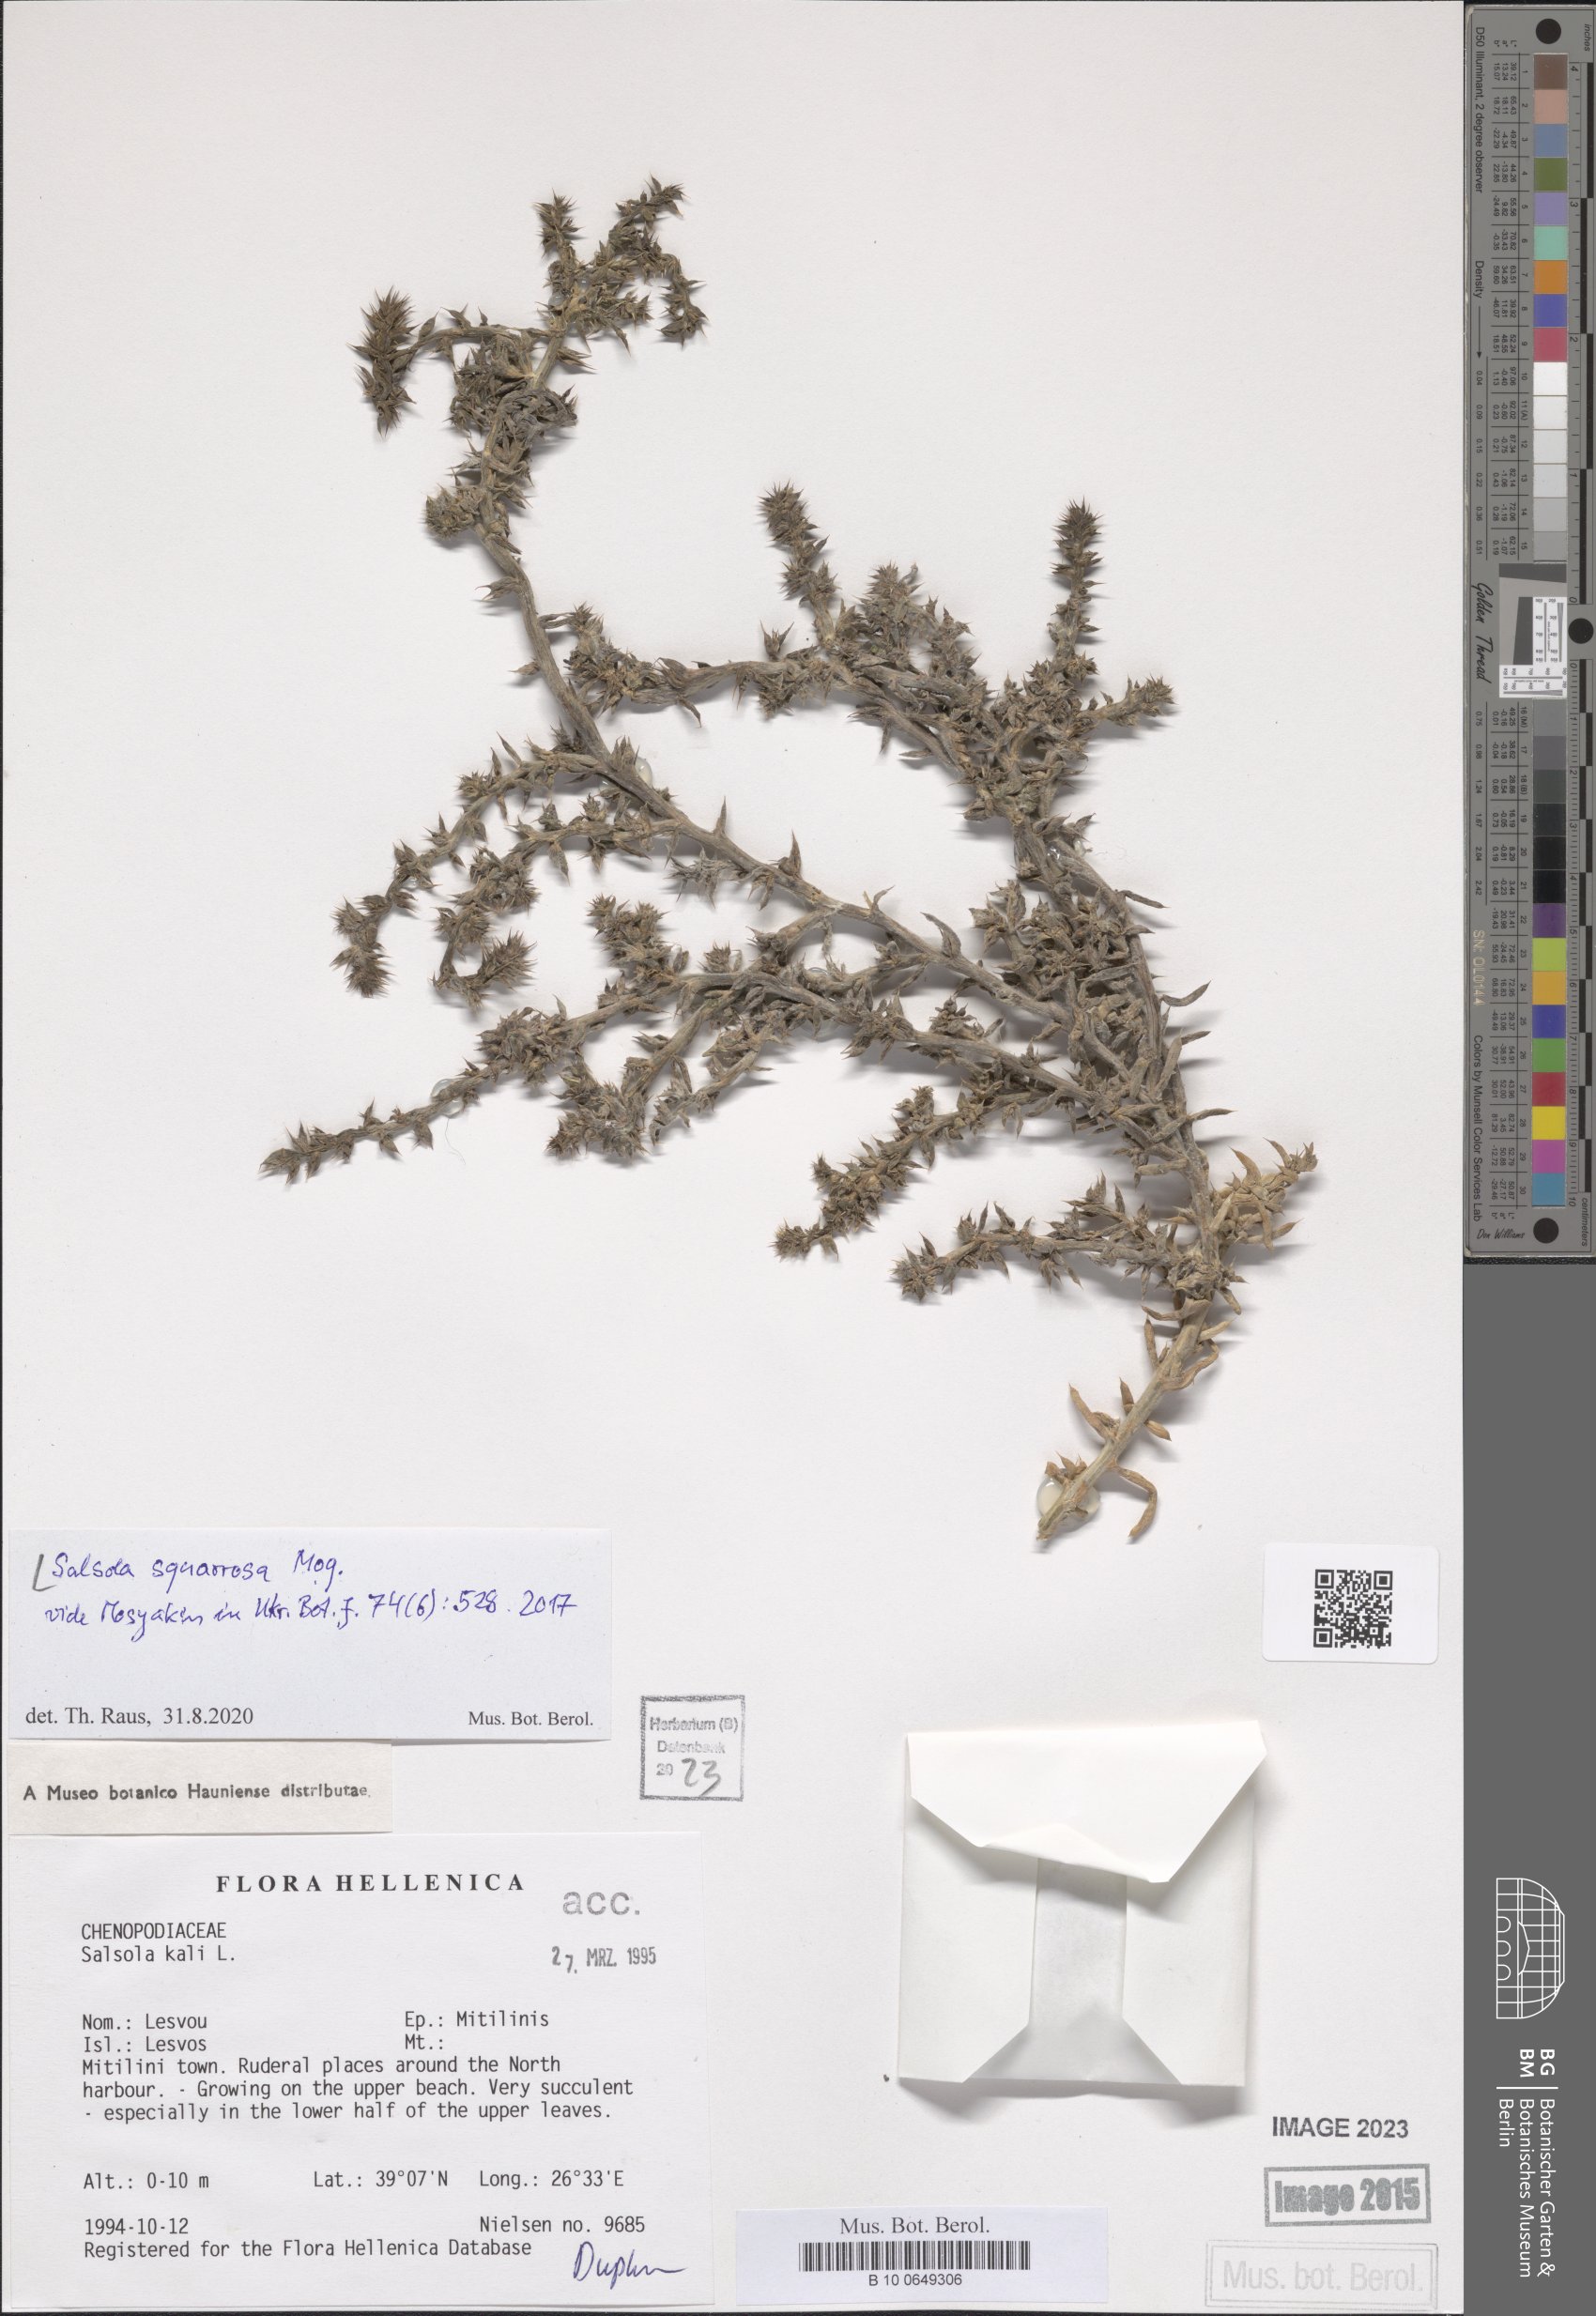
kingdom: Plantae
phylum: Tracheophyta
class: Magnoliopsida
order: Caryophyllales
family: Amaranthaceae
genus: Salsola
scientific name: Salsola squarrosa
